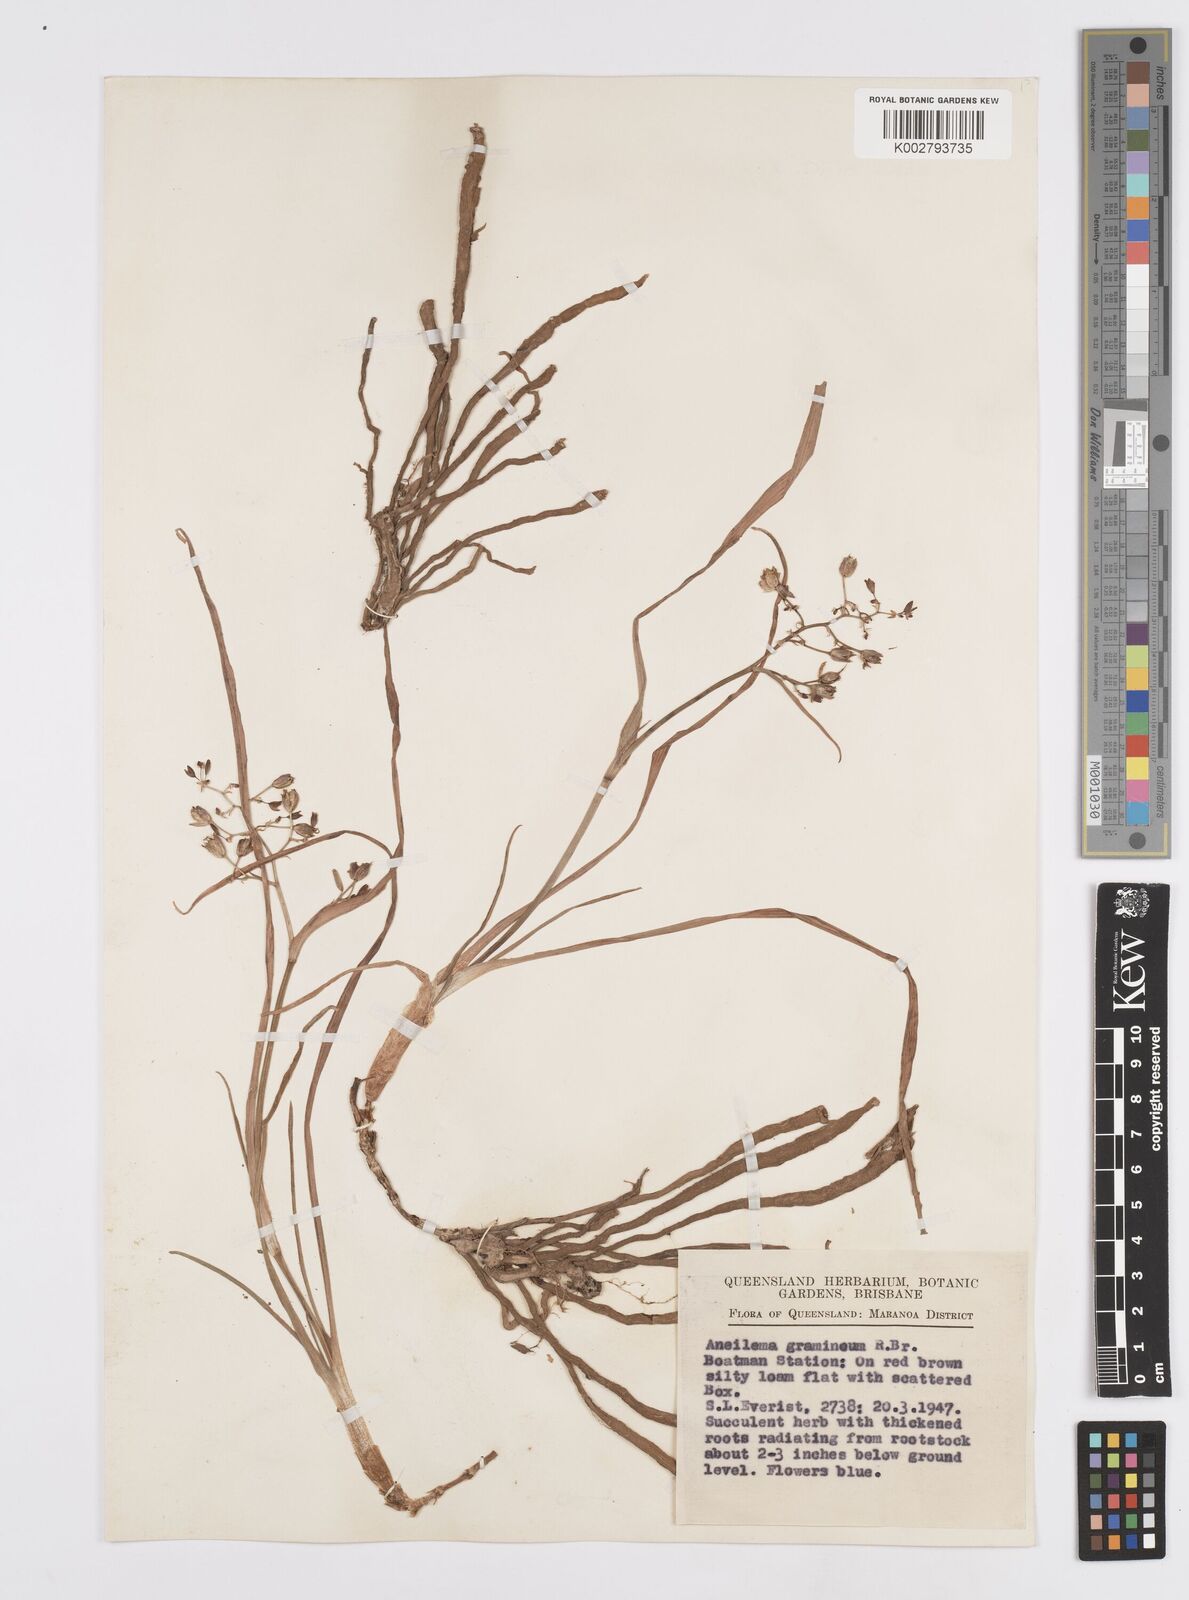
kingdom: Plantae
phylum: Tracheophyta
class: Liliopsida
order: Commelinales
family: Commelinaceae
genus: Murdannia
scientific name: Murdannia graminea
